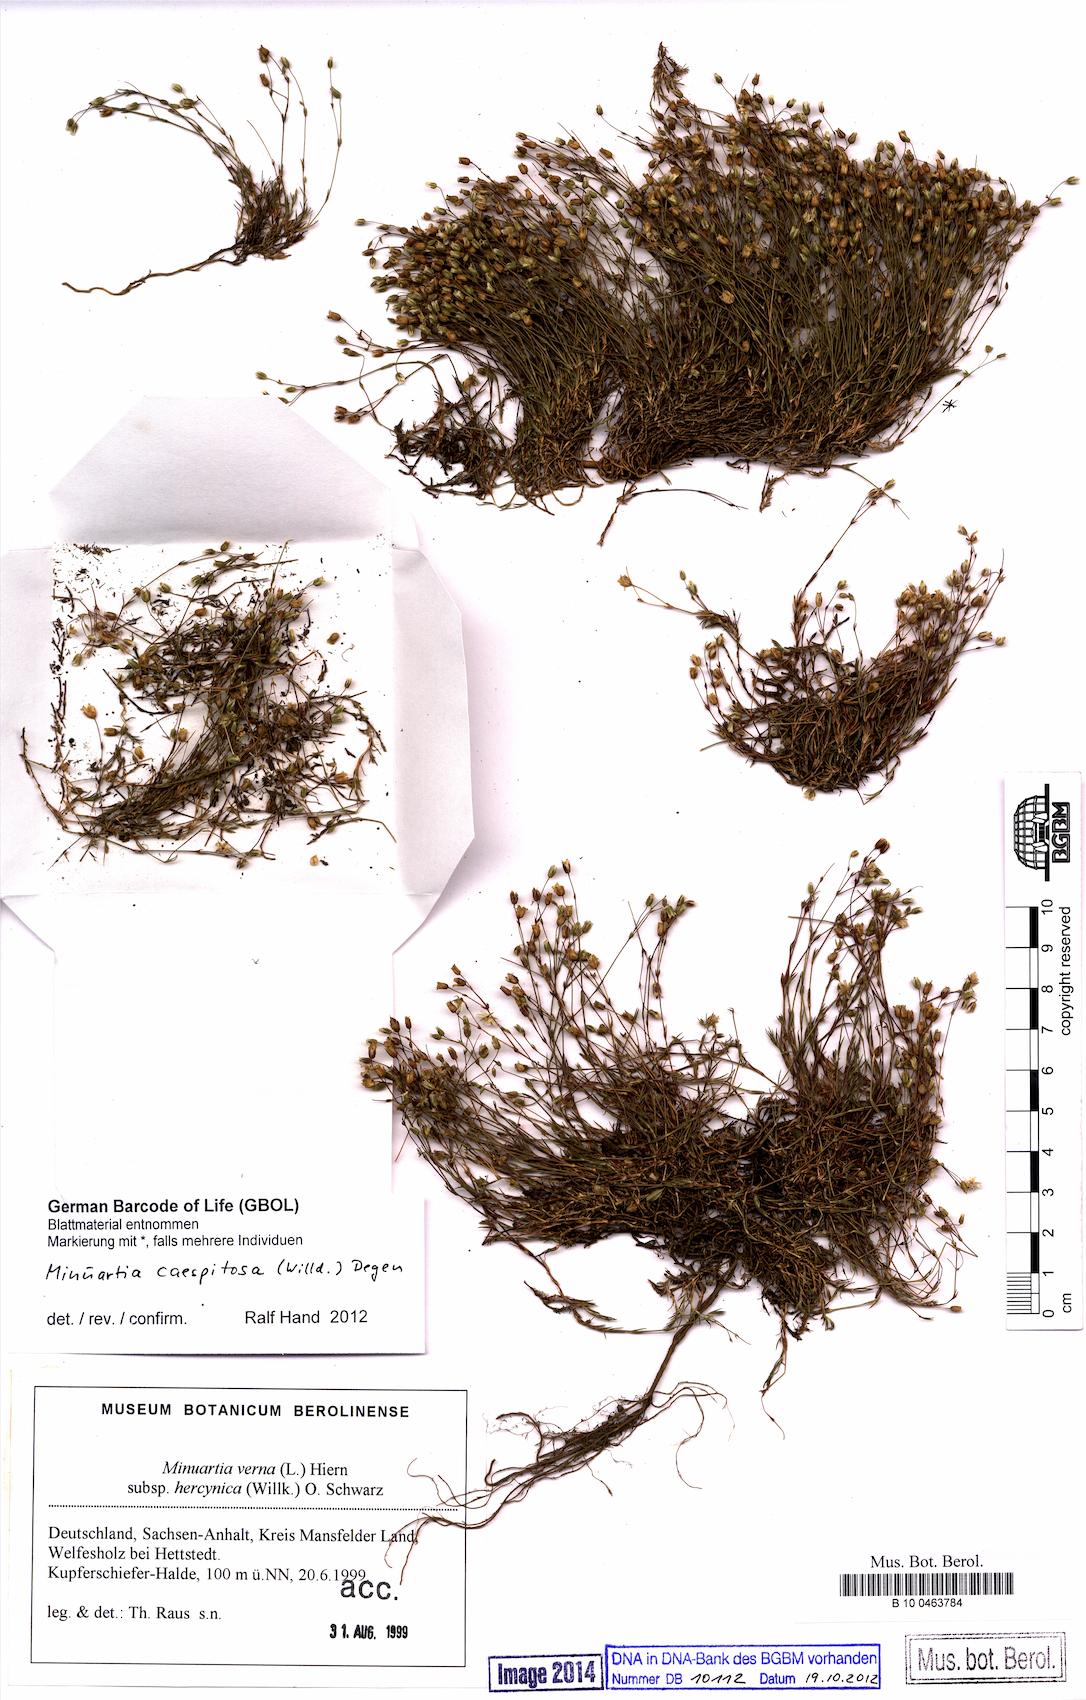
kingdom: Plantae
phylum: Tracheophyta
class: Magnoliopsida
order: Caryophyllales
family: Caryophyllaceae
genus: Sabulina
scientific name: Sabulina caespitosa
